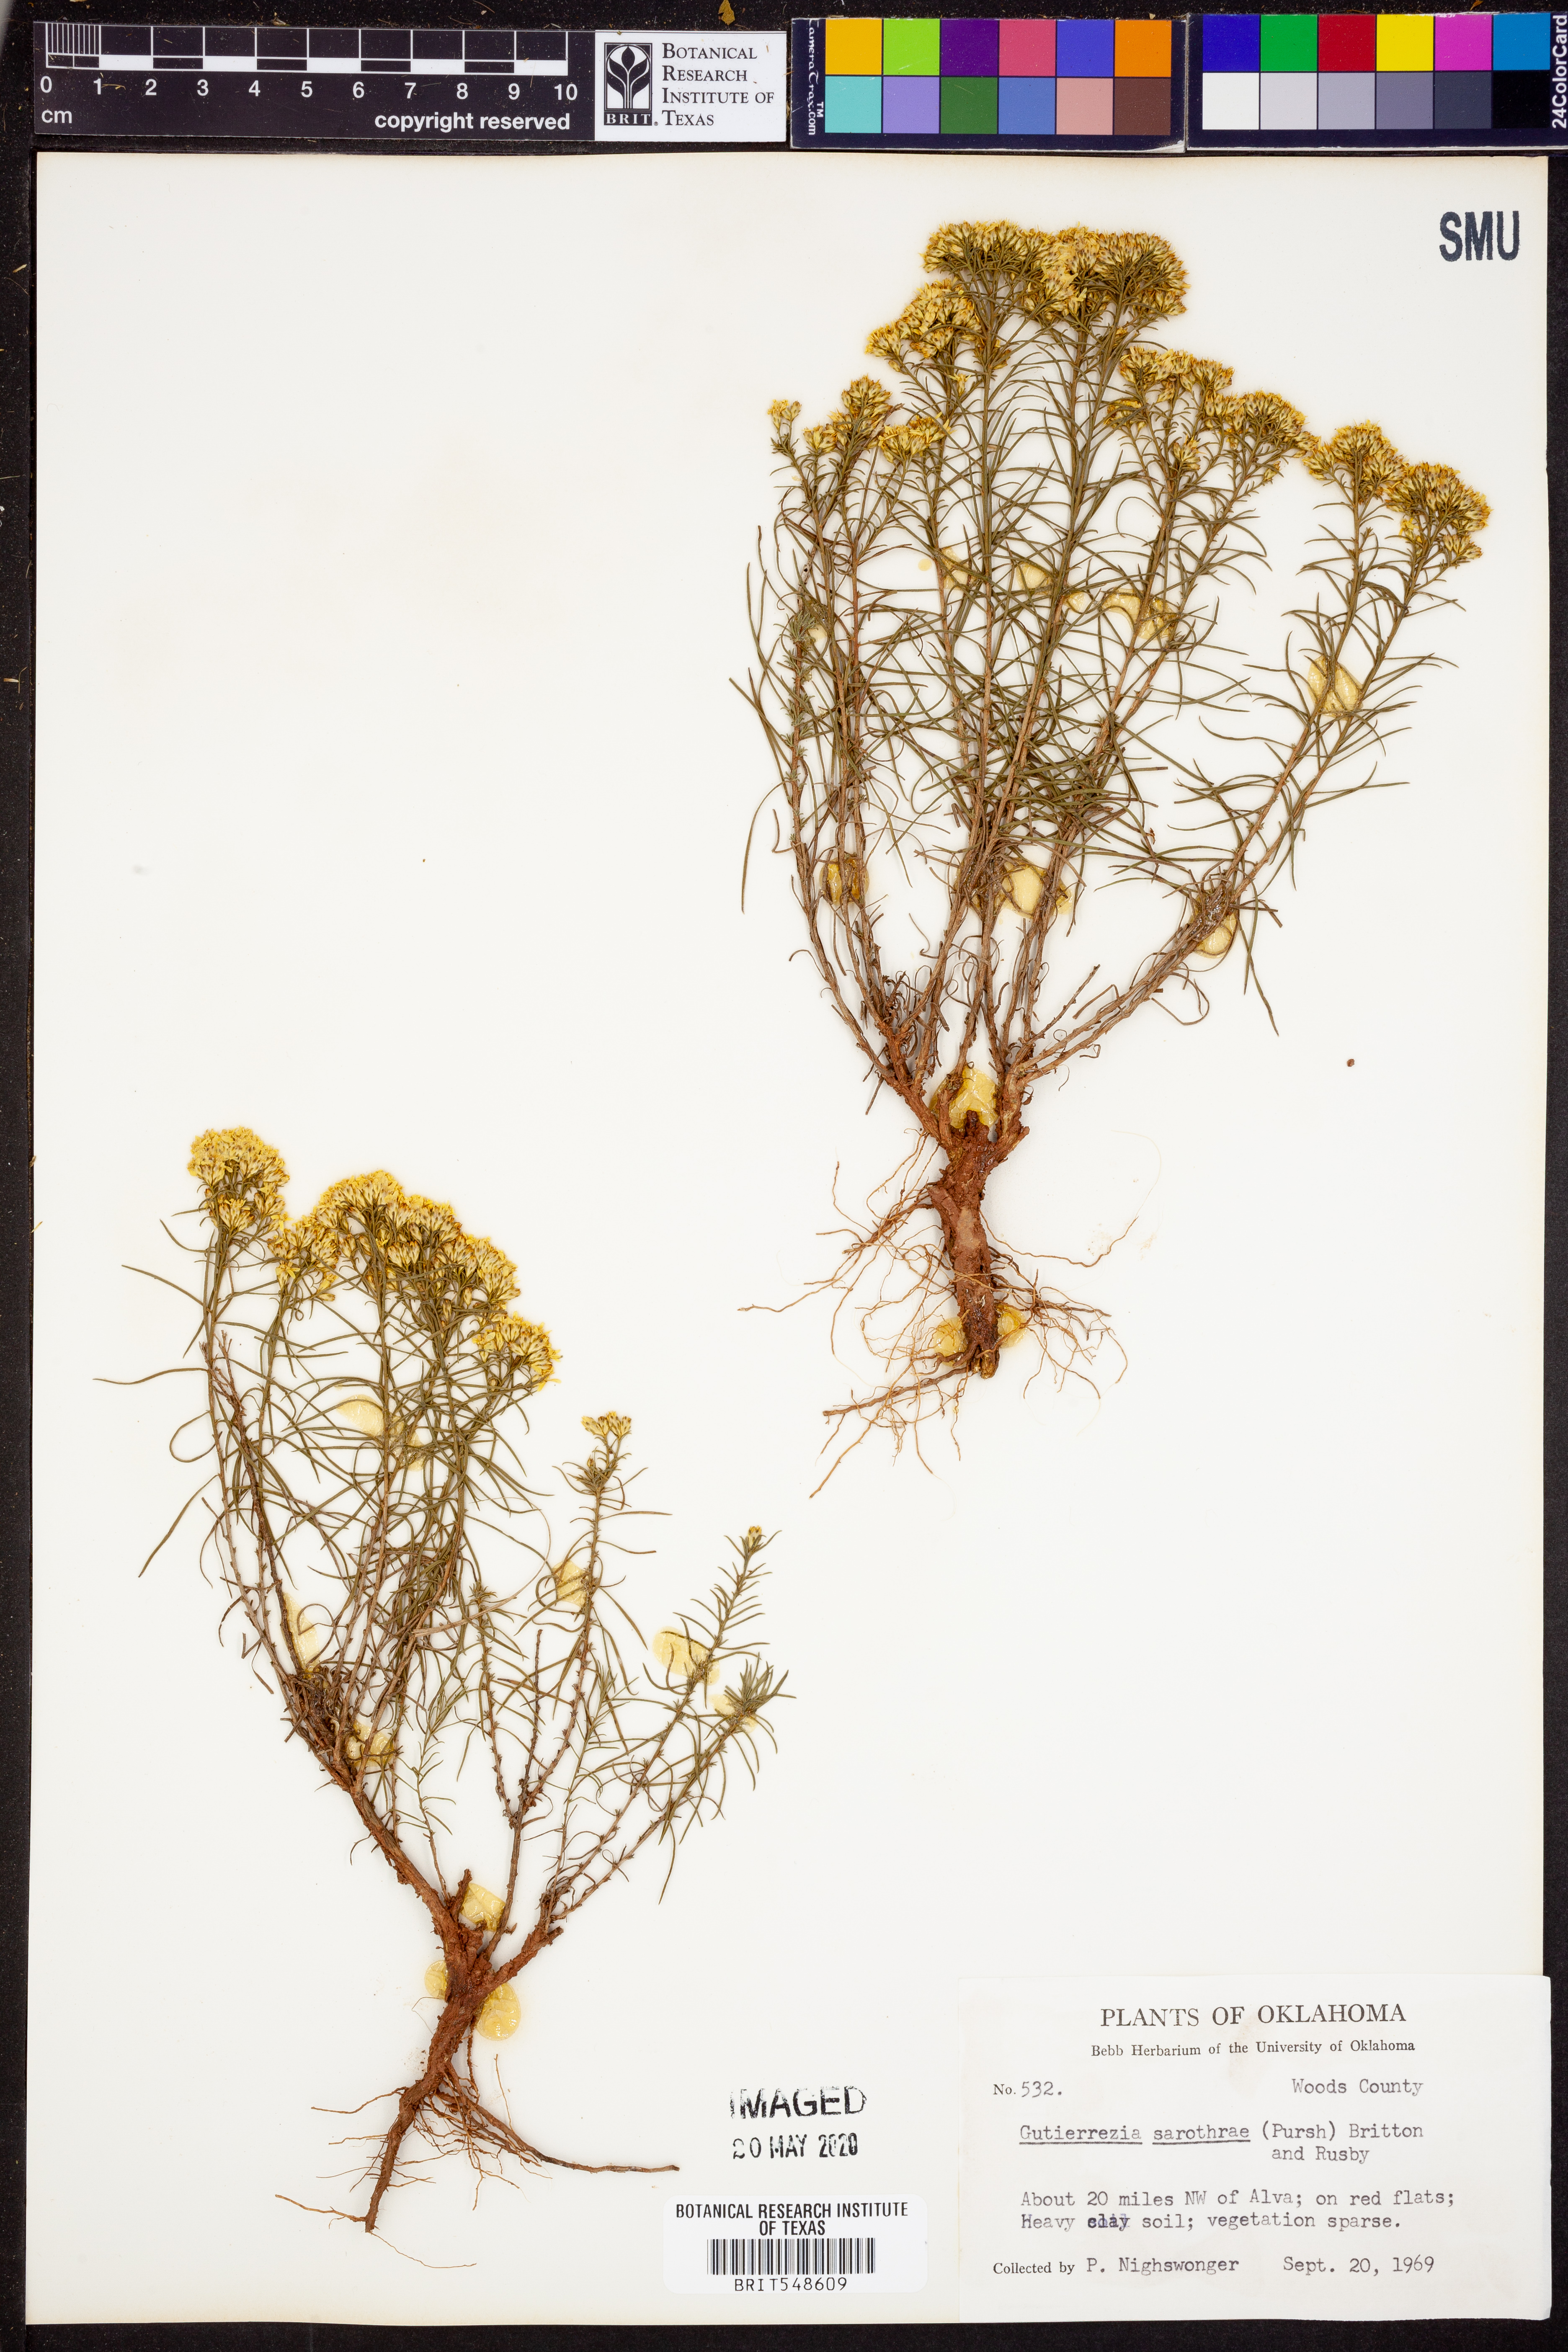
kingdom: Plantae
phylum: Tracheophyta
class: Magnoliopsida
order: Asterales
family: Asteraceae
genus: Gutierrezia
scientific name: Gutierrezia sarothrae
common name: Broom snakeweed
